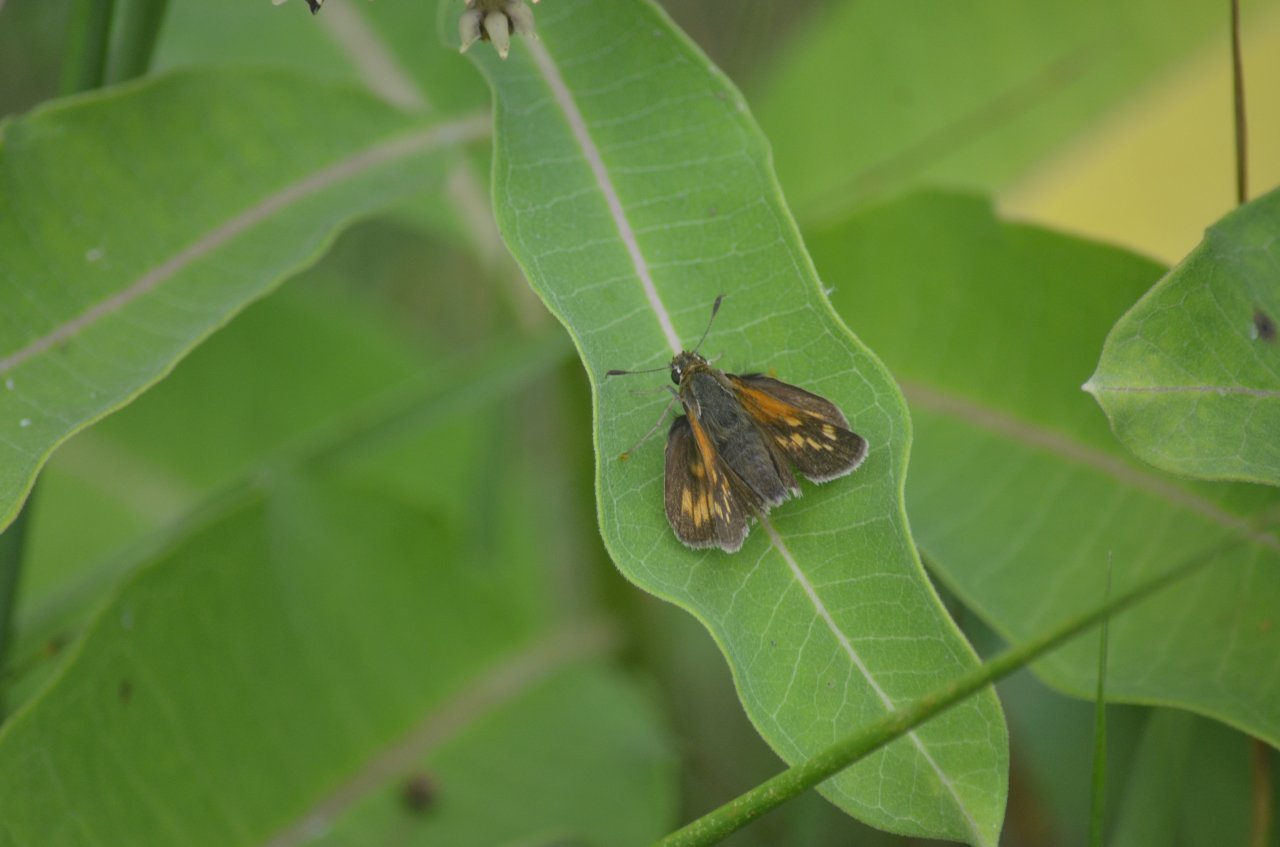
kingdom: Animalia
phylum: Arthropoda
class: Insecta
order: Lepidoptera
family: Hesperiidae
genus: Polites
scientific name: Polites
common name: Long Dash Skipper
